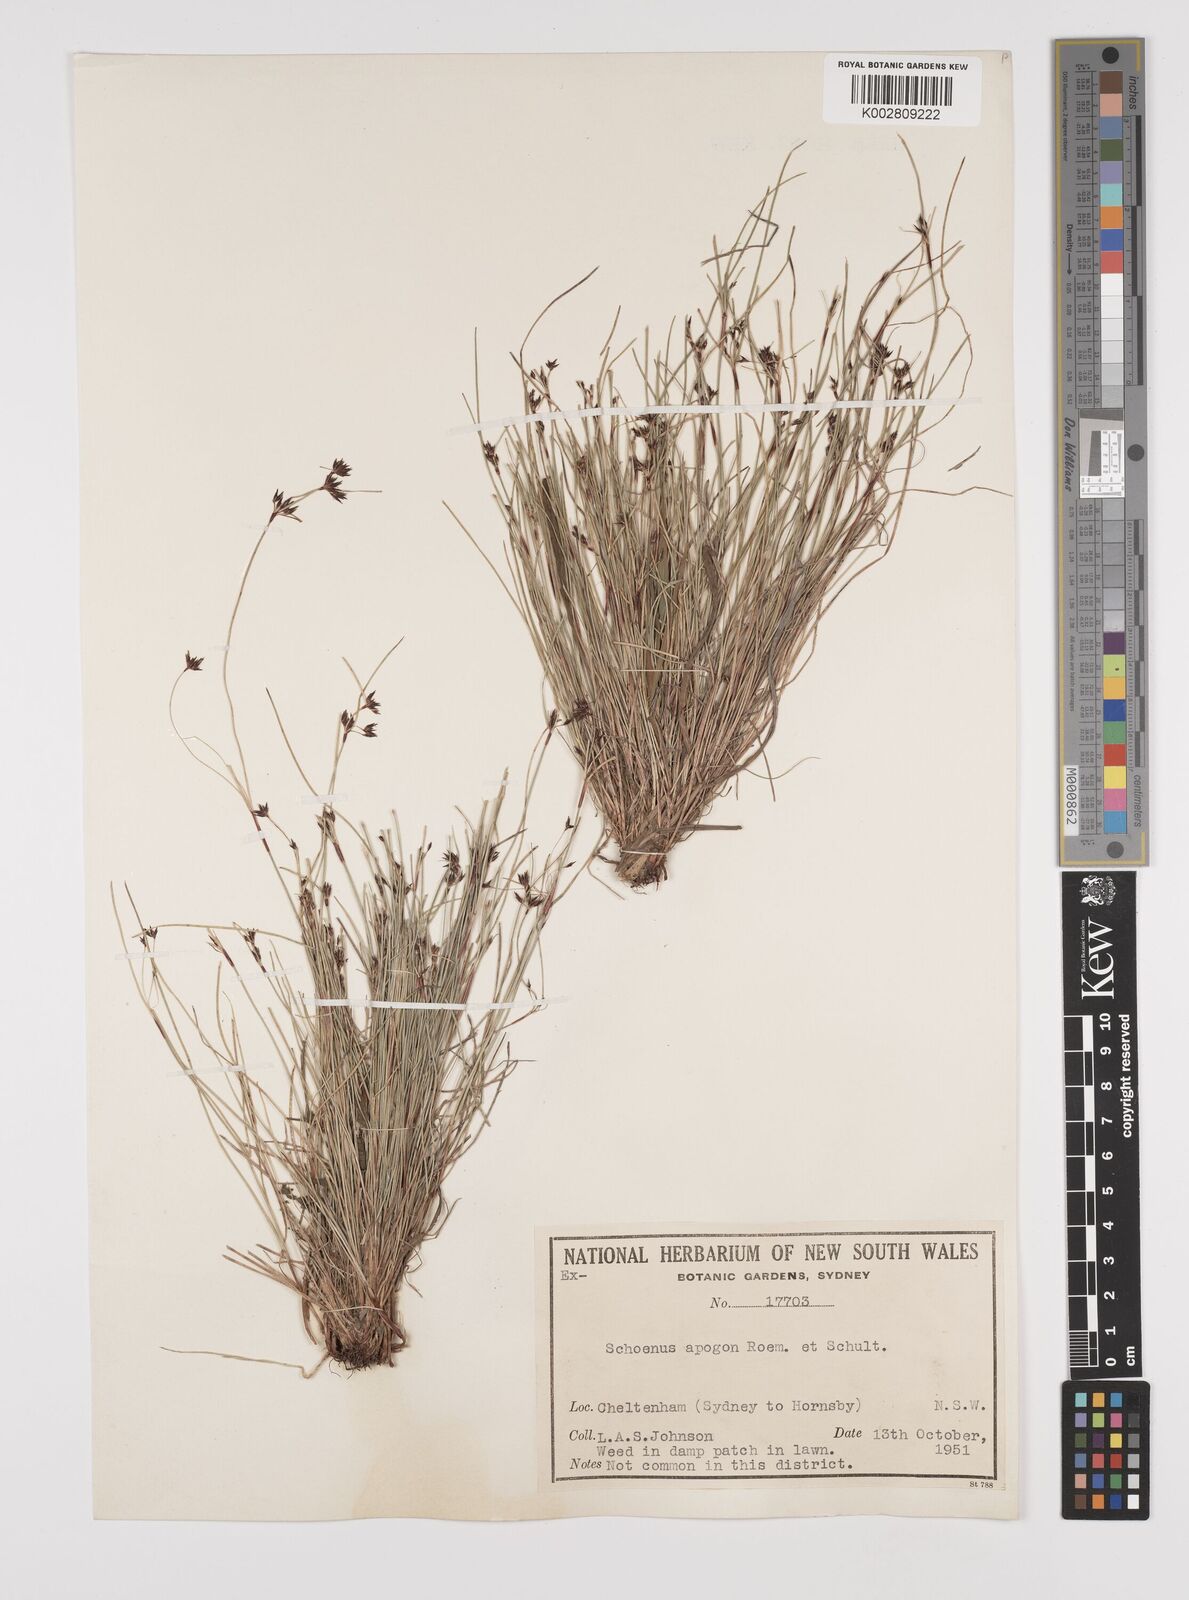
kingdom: Plantae
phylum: Tracheophyta
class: Liliopsida
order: Poales
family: Cyperaceae
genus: Schoenus
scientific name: Schoenus apogon
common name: Smooth bogrush
